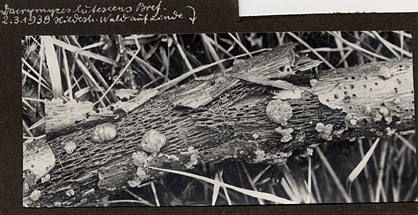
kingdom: Fungi
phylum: Basidiomycota
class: Dacrymycetes
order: Dacrymycetales
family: Dacrymycetaceae
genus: Dacrymyces
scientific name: Dacrymyces lacrymalis
